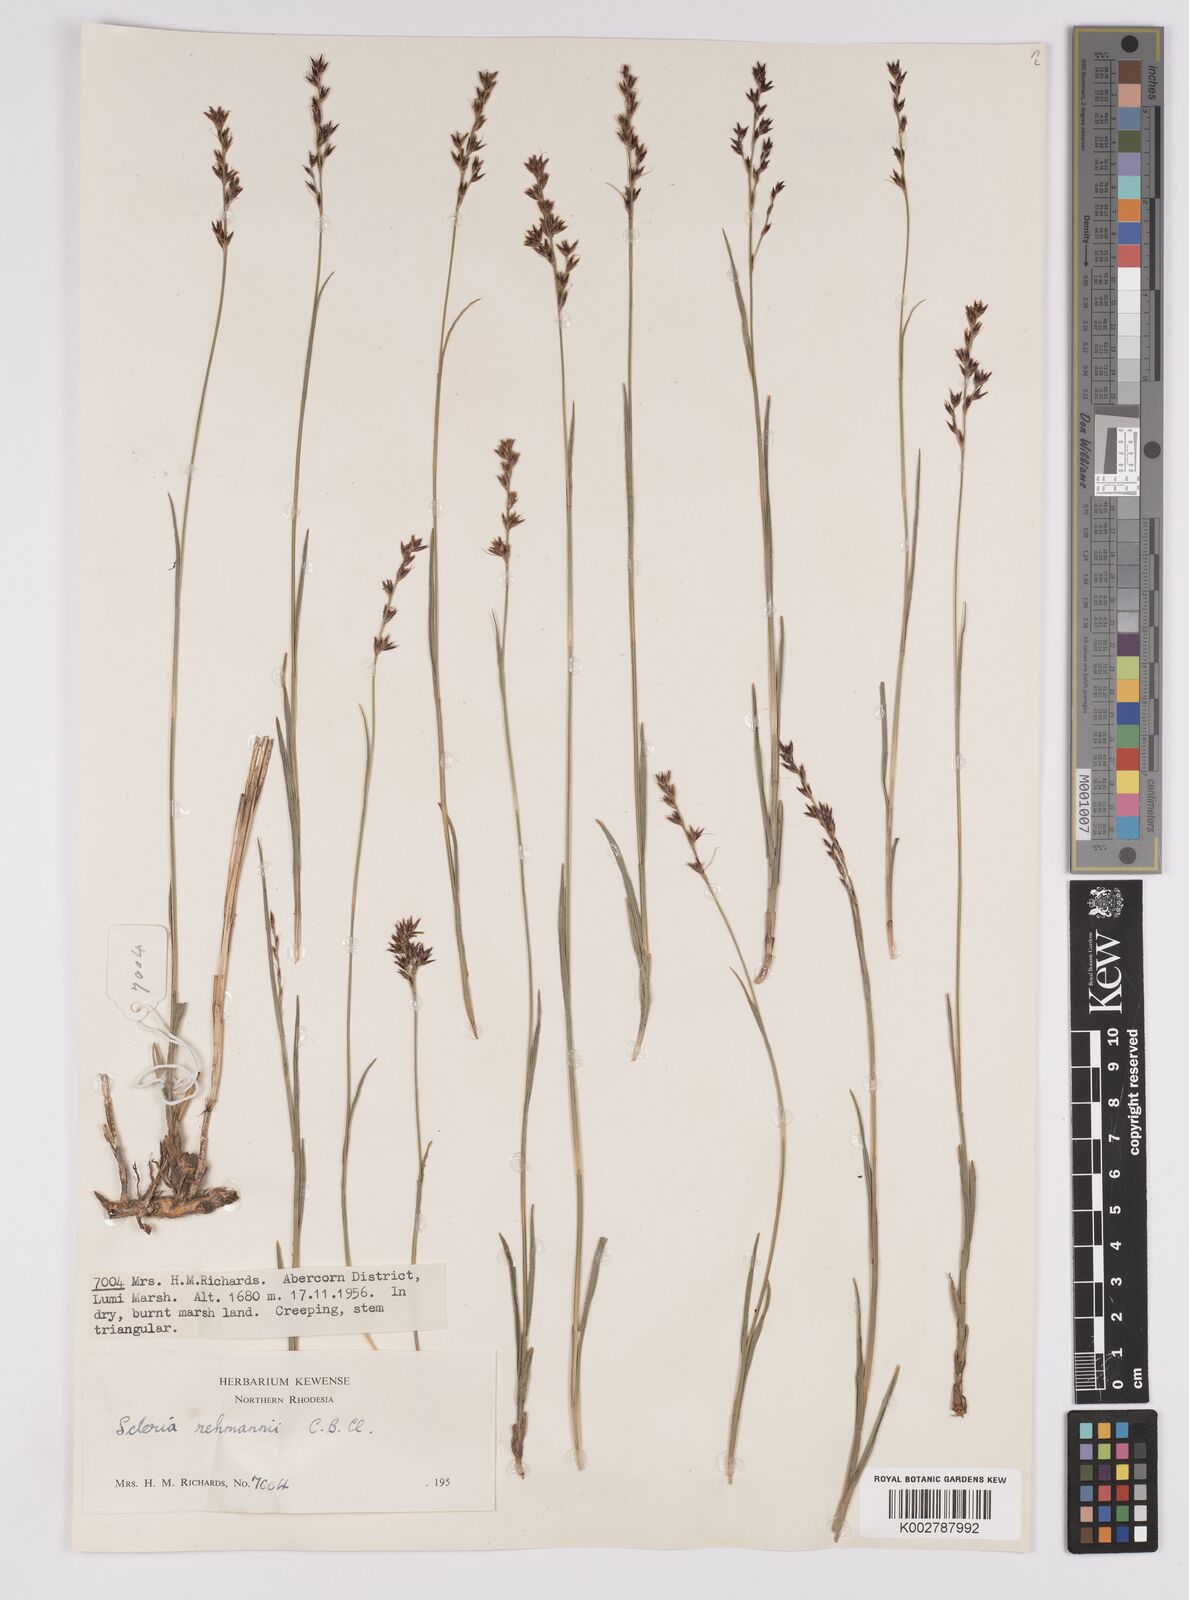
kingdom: Plantae
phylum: Tracheophyta
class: Liliopsida
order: Poales
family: Cyperaceae
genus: Scleria
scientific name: Scleria rehmannii
